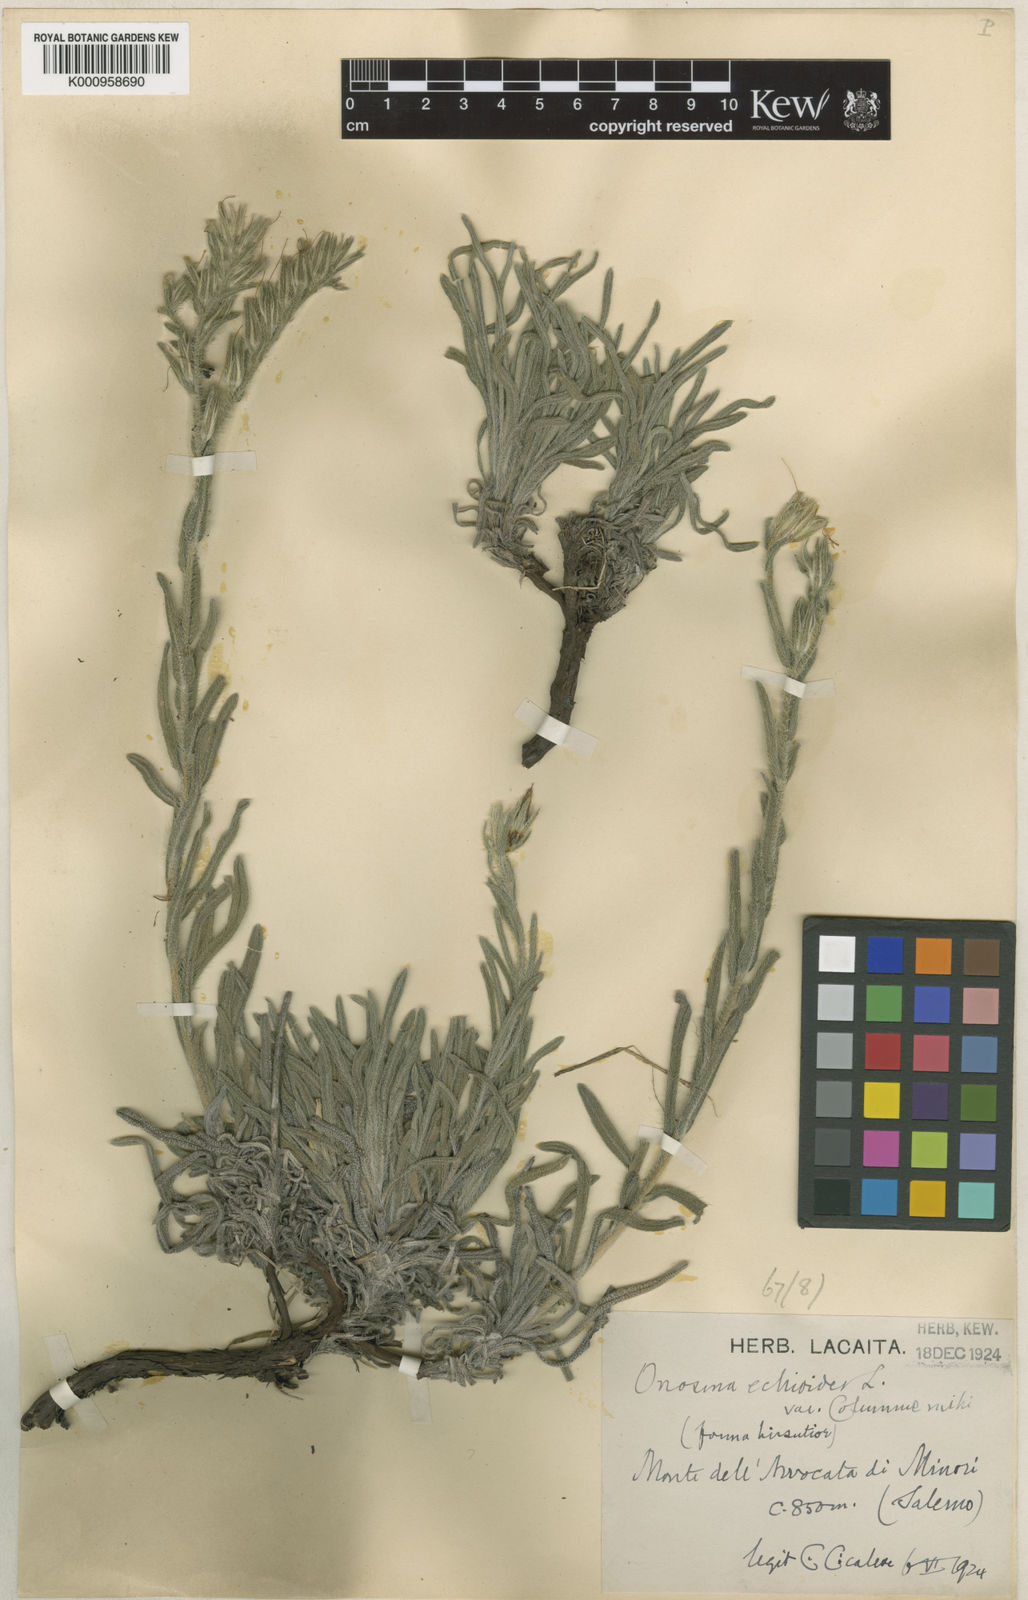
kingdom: Plantae
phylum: Tracheophyta
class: Magnoliopsida
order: Boraginales
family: Boraginaceae
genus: Onosma
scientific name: Onosma echioides
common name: Goldendrop
